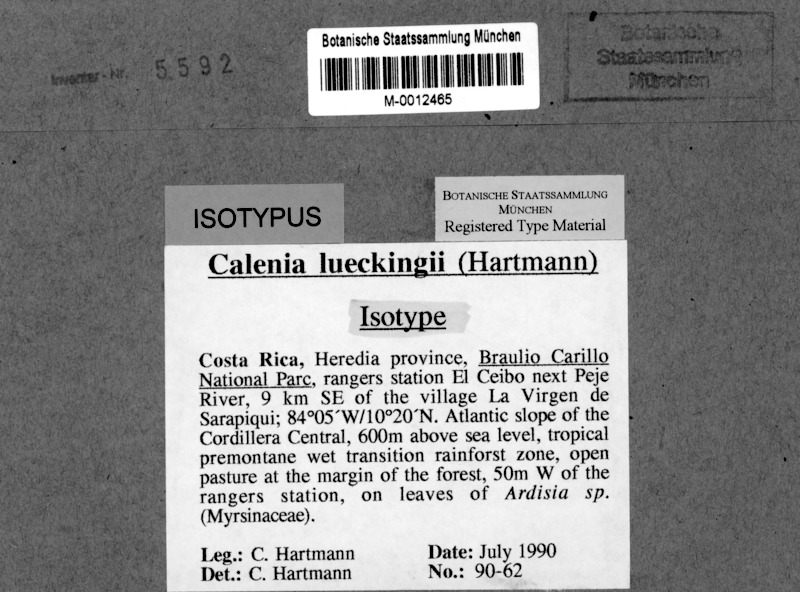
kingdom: Fungi
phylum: Ascomycota
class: Lecanoromycetes
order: Ostropales
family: Gomphillaceae
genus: Calenia
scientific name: Calenia lueckingii
